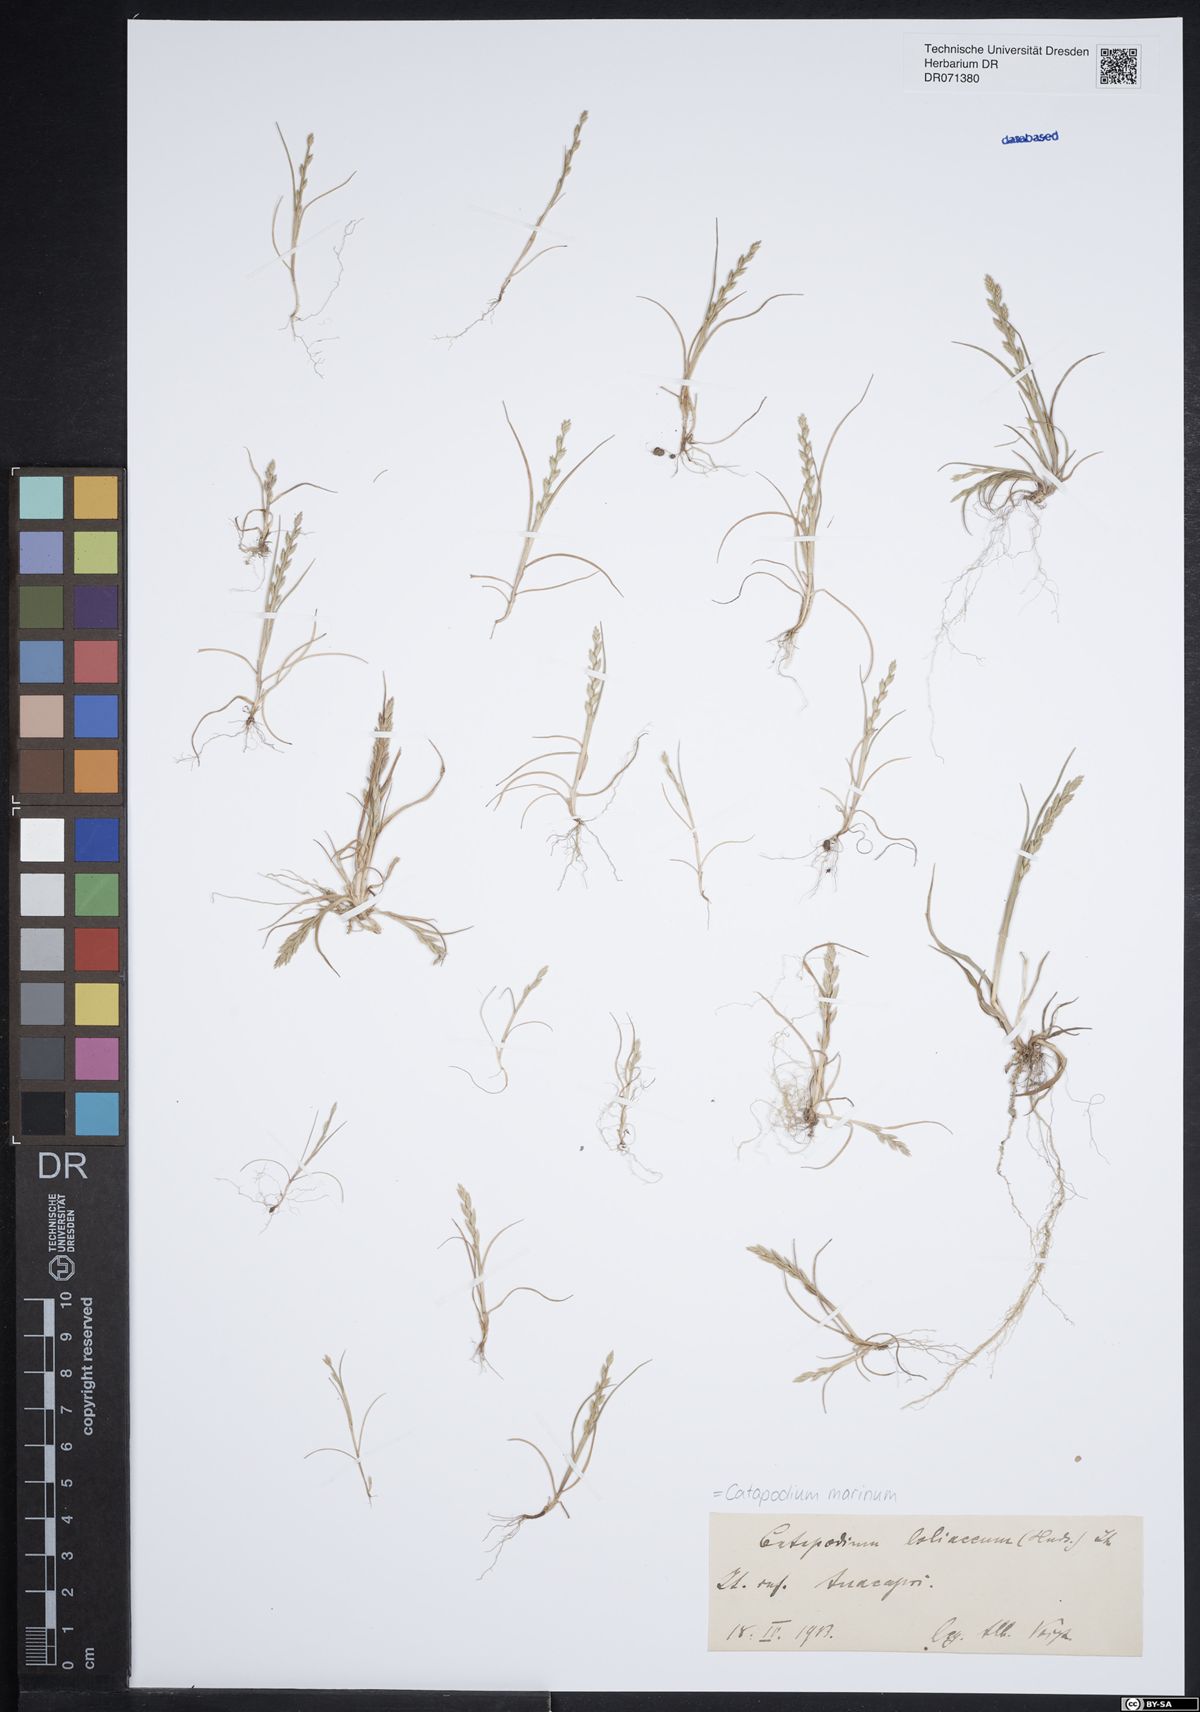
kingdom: Plantae
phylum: Tracheophyta
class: Liliopsida
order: Poales
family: Poaceae
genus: Catapodium
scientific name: Catapodium marinum
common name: Sea fern-grass
